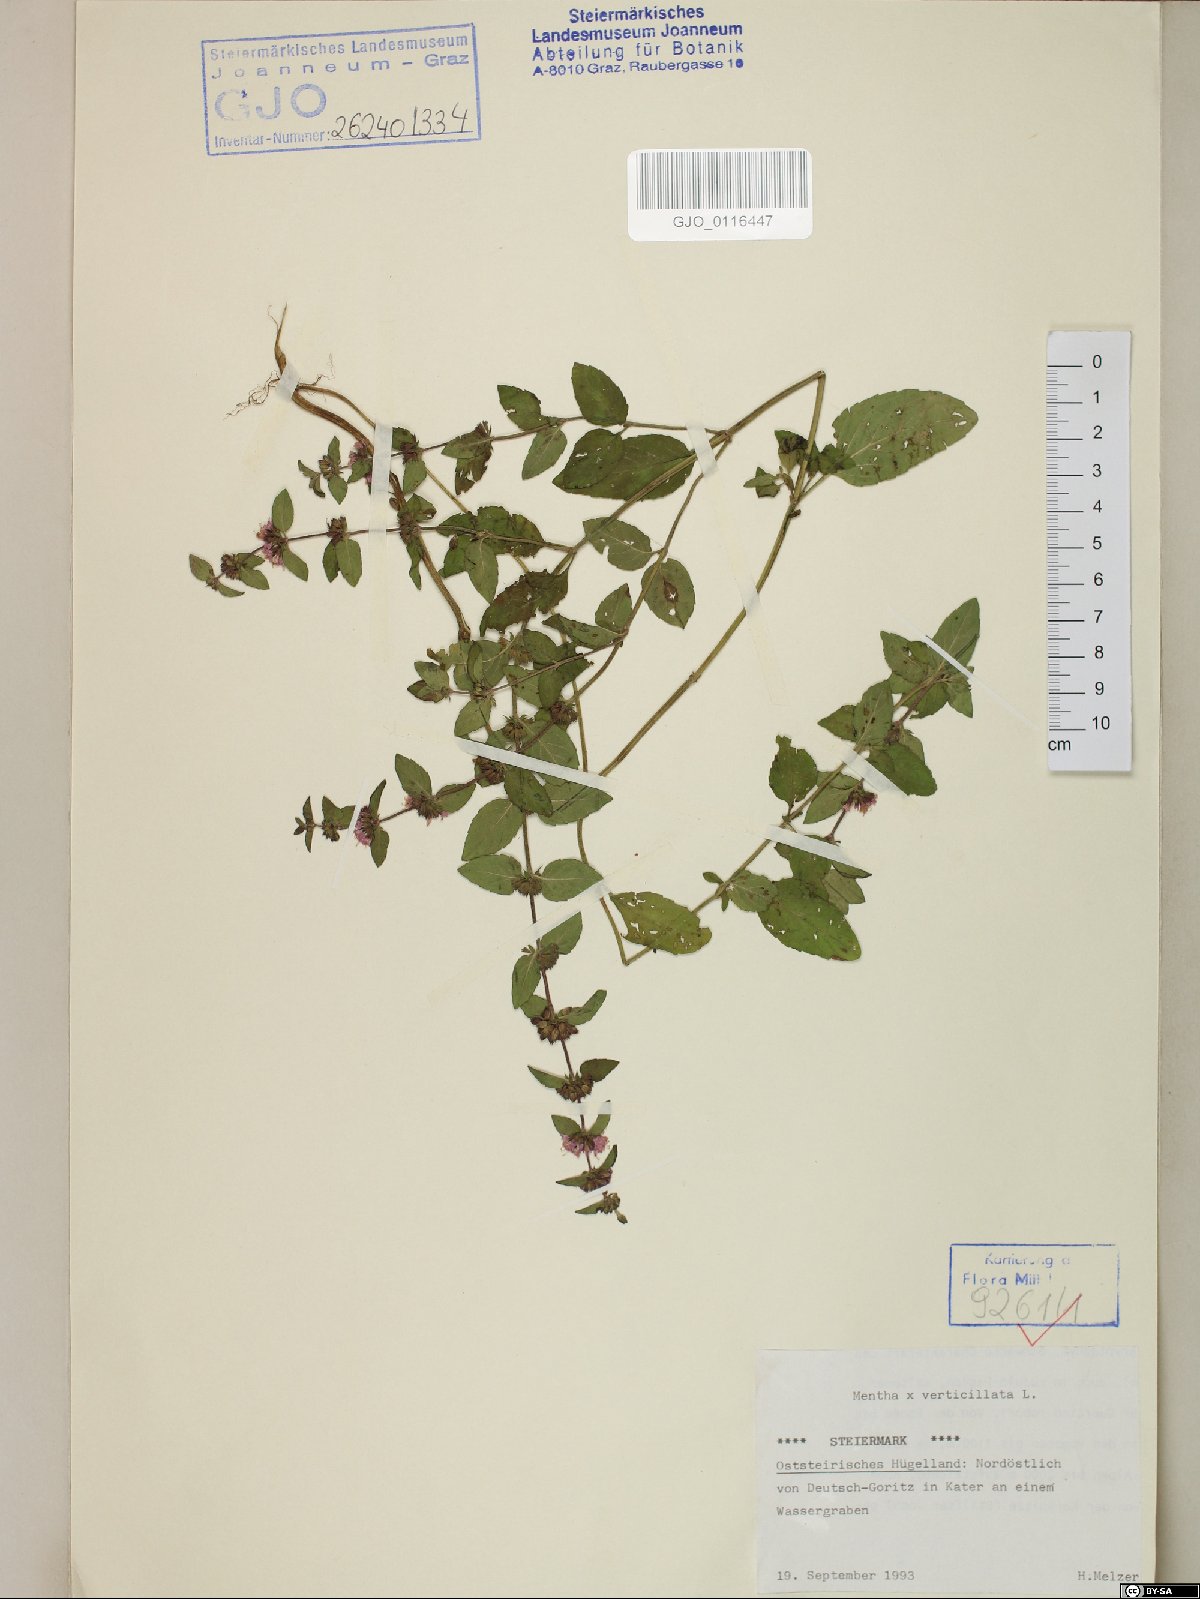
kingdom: Plantae
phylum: Tracheophyta
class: Magnoliopsida
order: Lamiales
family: Lamiaceae
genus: Mentha
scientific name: Mentha verticillata
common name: Mint
